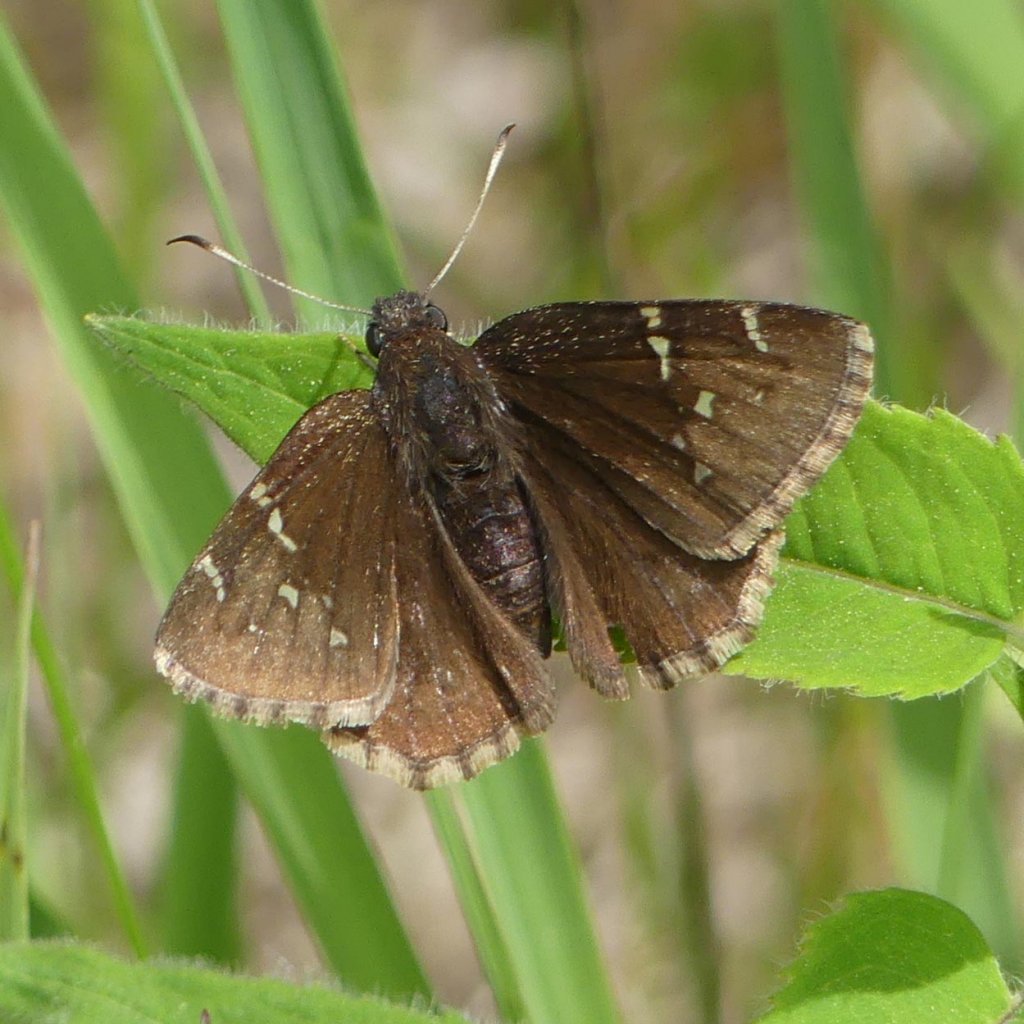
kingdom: Animalia
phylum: Arthropoda
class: Insecta
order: Lepidoptera
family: Hesperiidae
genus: Autochton
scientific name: Autochton
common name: Northern Cloudywing
